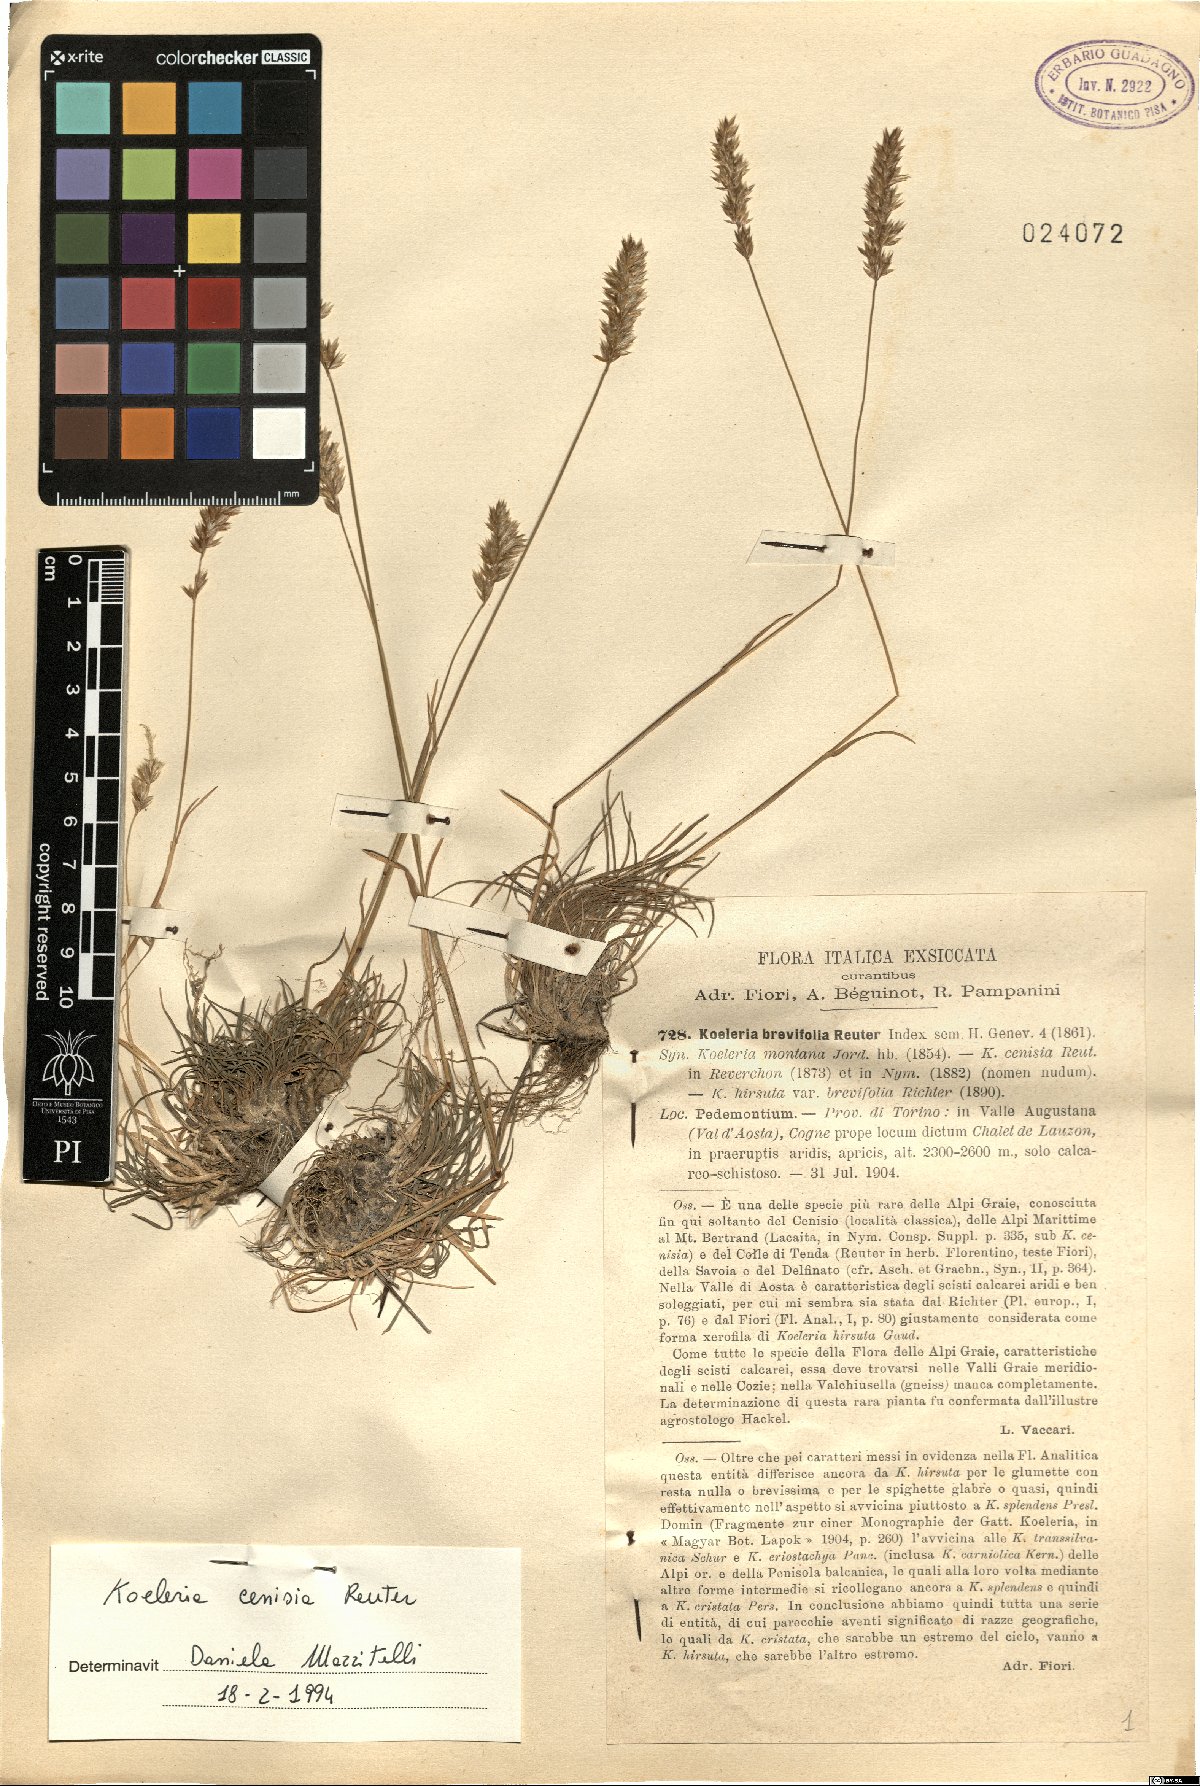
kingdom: Plantae
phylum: Tracheophyta
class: Liliopsida
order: Poales
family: Poaceae
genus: Koeleria
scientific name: Koeleria cenisia
